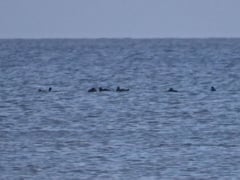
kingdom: Animalia
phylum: Chordata
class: Aves
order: Anseriformes
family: Anatidae
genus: Melanitta
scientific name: Melanitta nigra
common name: Common scoter
